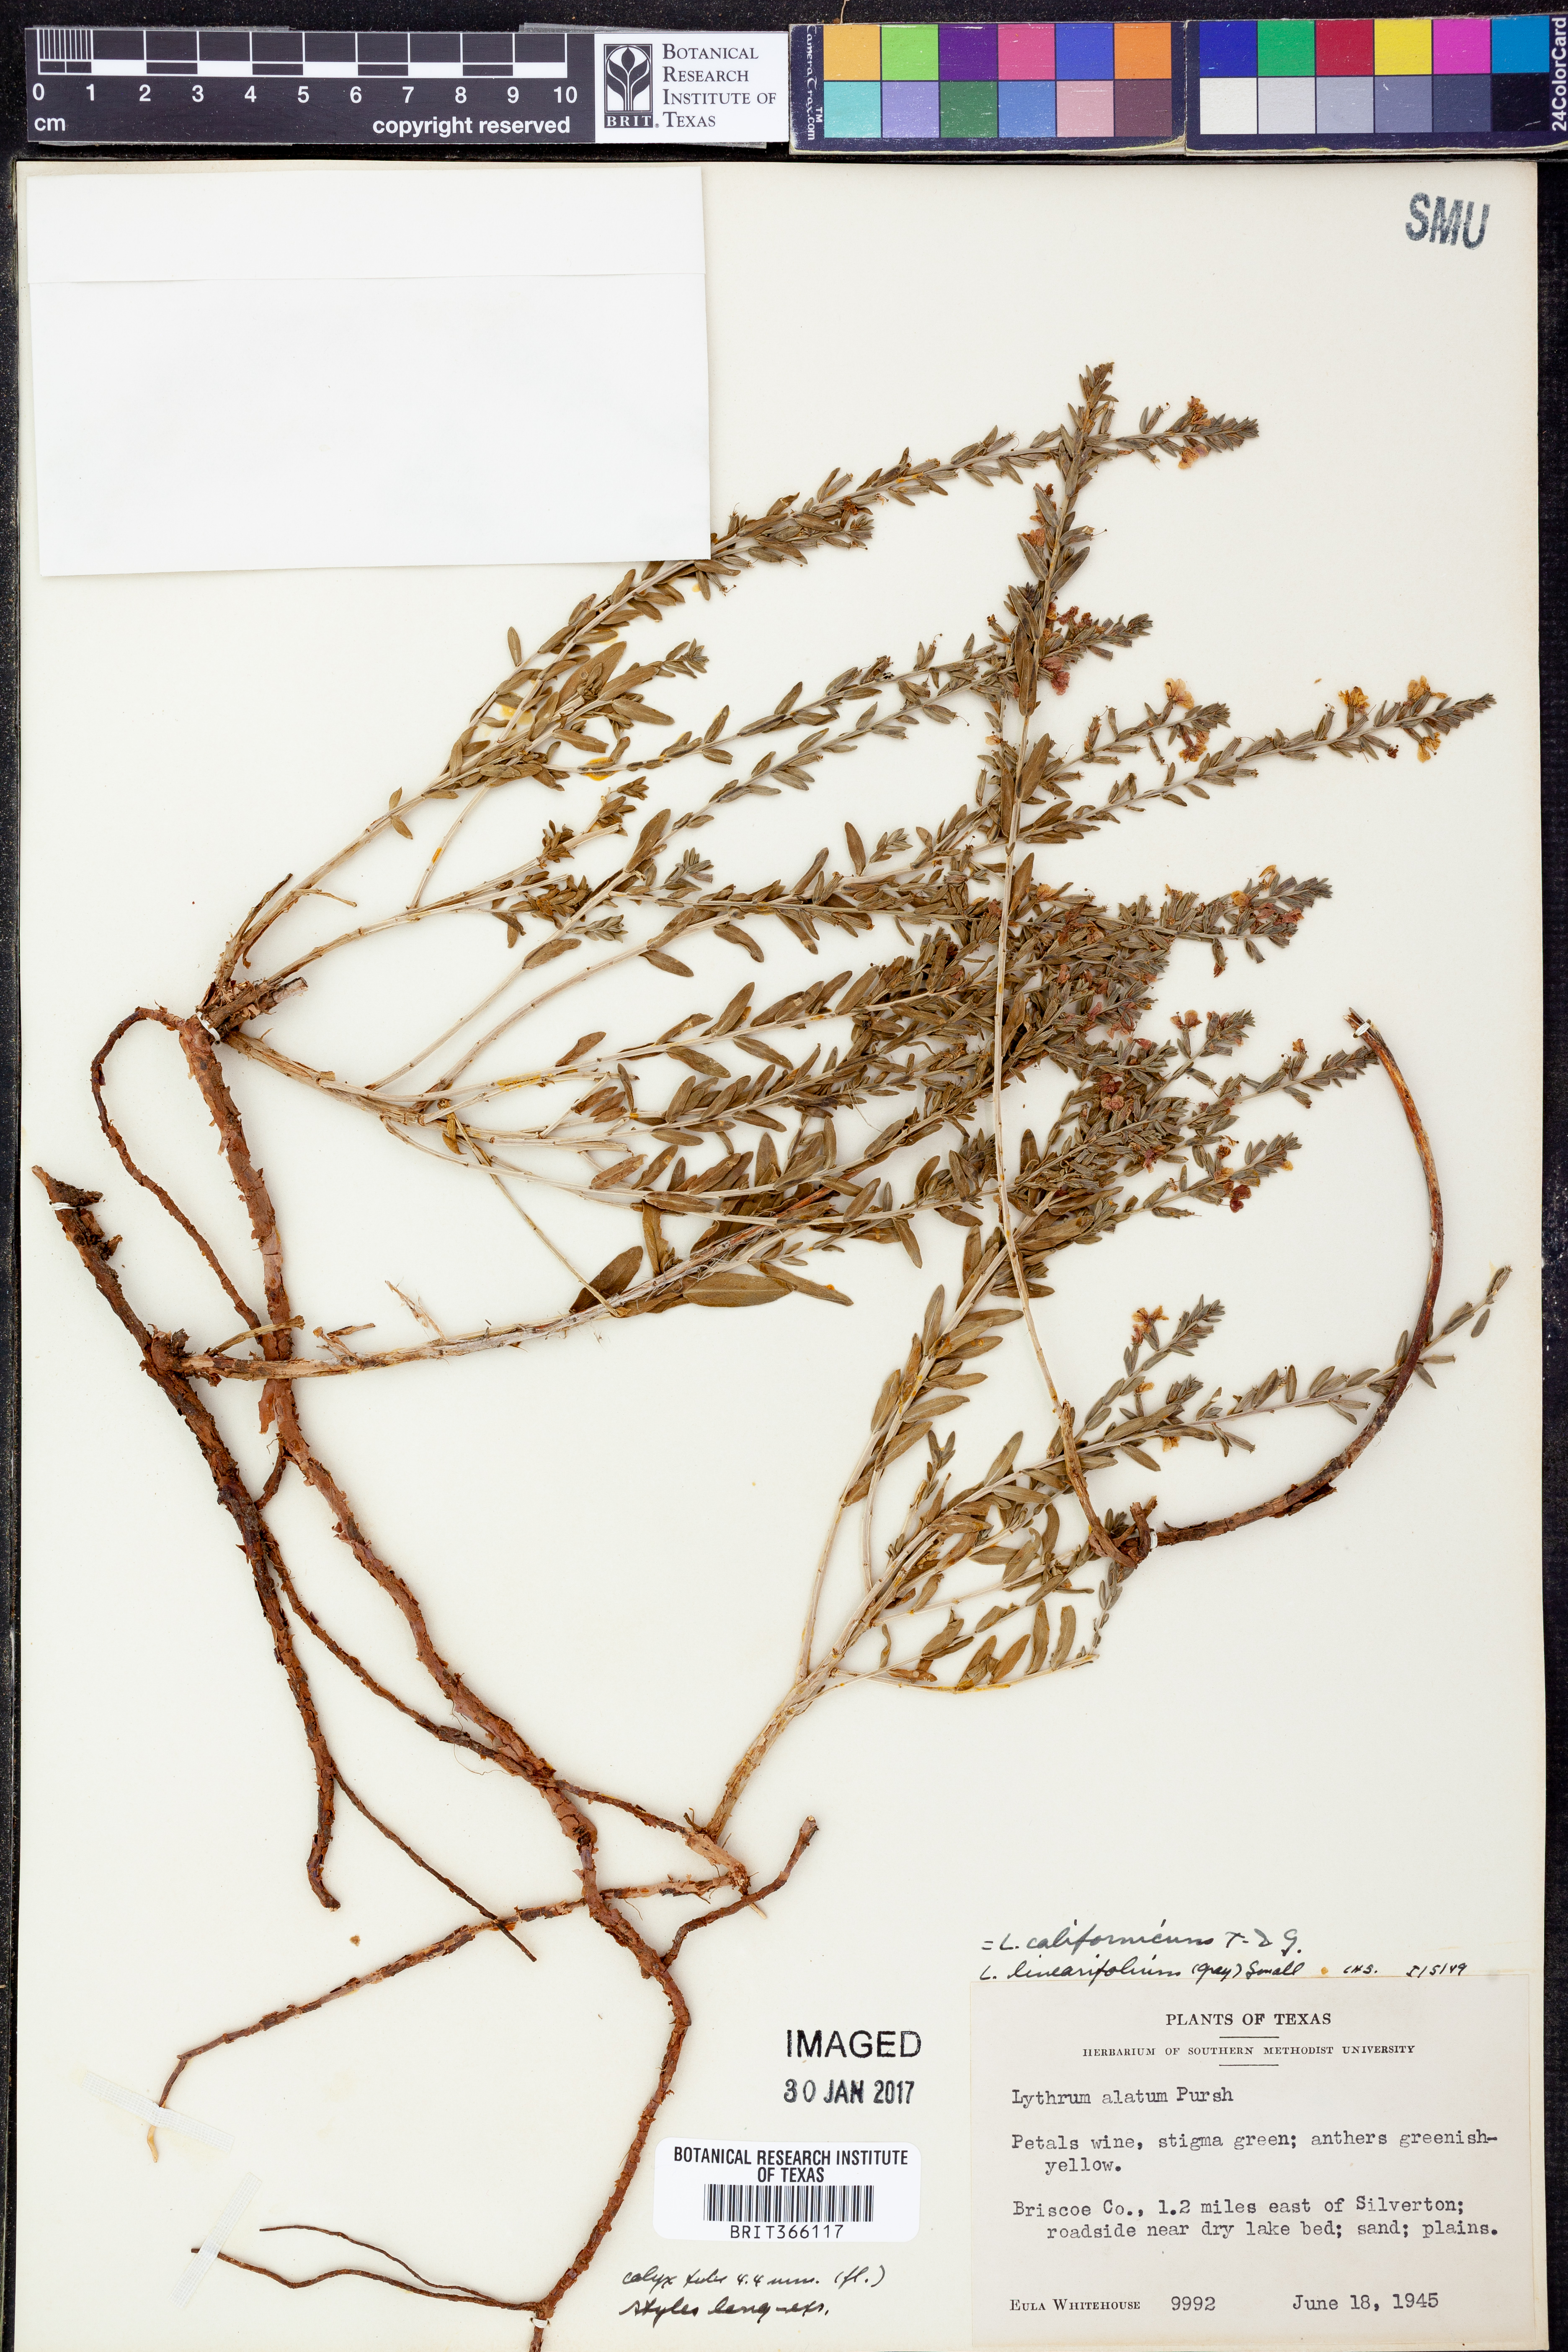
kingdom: Plantae
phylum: Tracheophyta
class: Magnoliopsida
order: Myrtales
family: Lythraceae
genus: Lythrum
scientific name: Lythrum californicum
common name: California loosestrife
